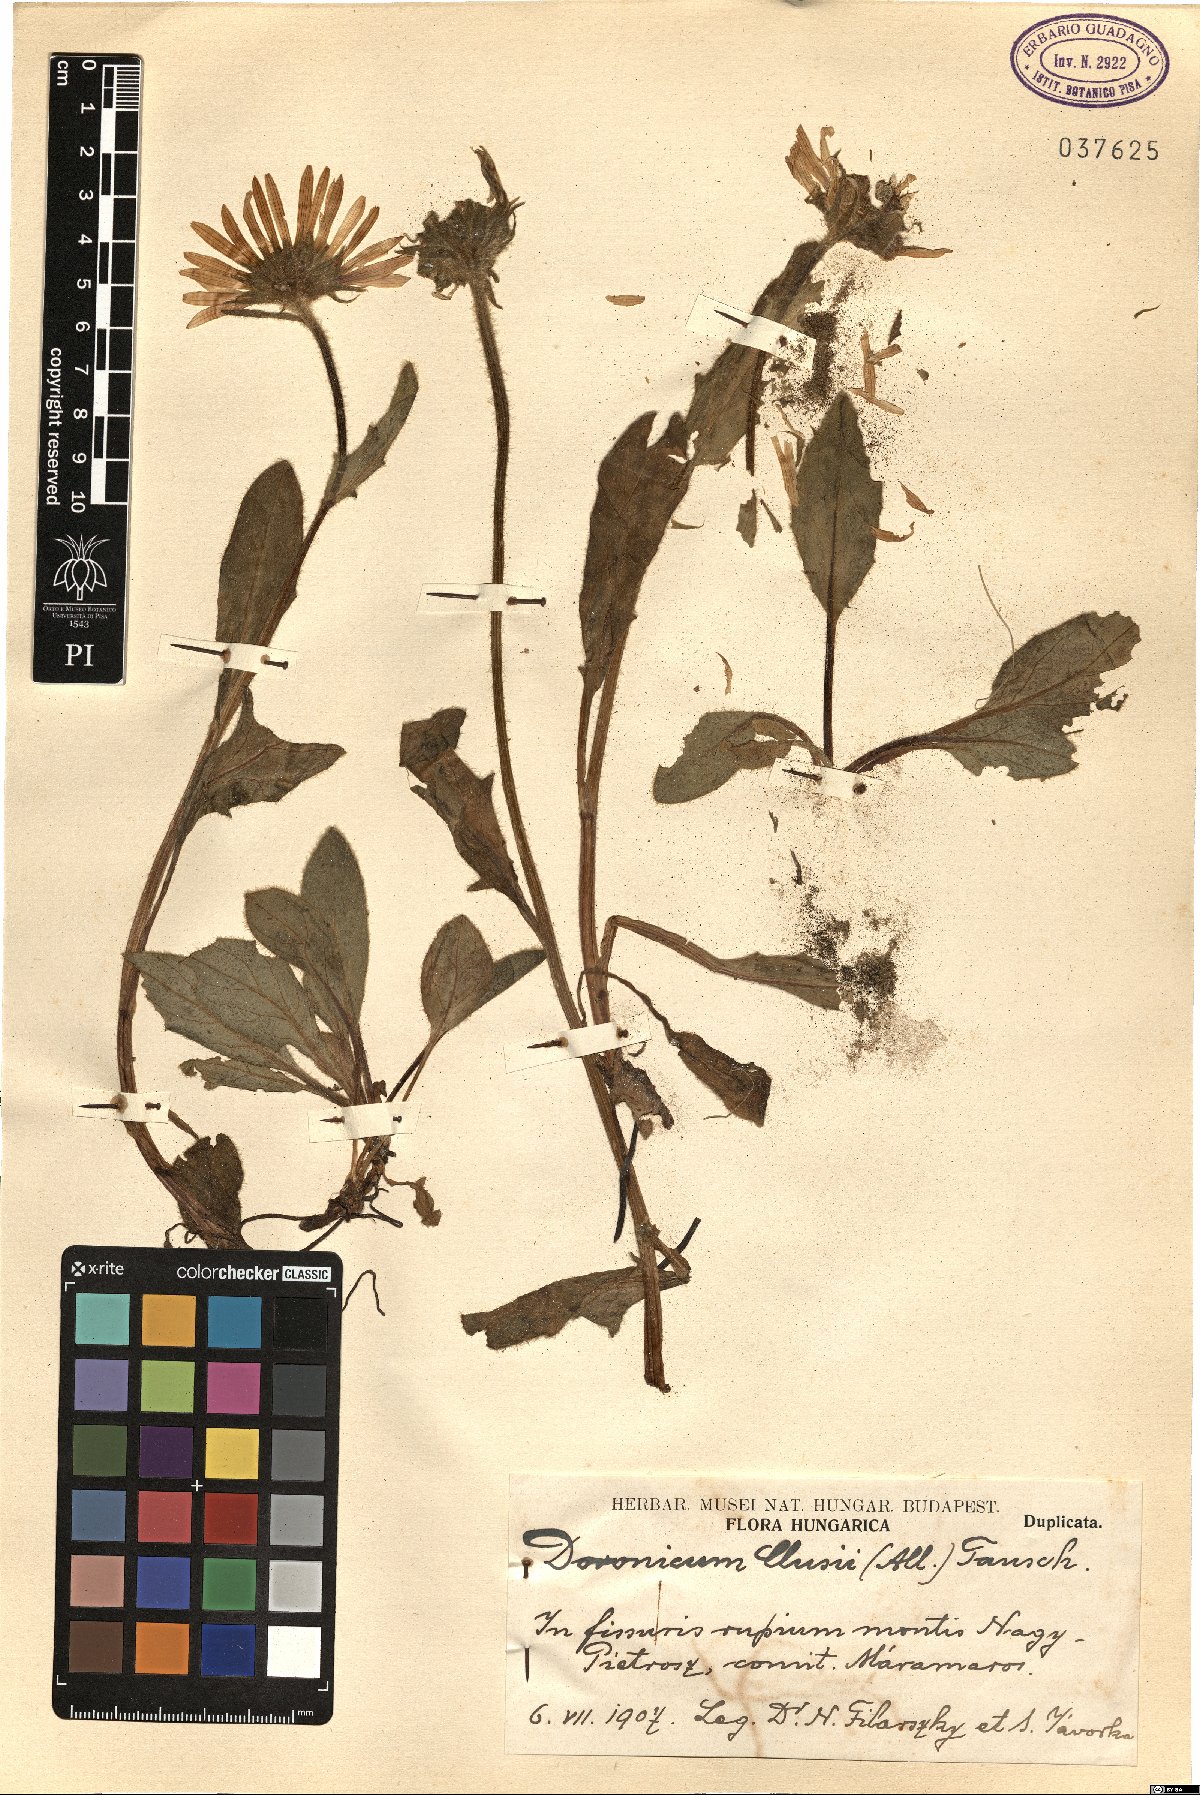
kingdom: Plantae
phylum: Tracheophyta
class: Magnoliopsida
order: Asterales
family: Asteraceae
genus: Doronicum
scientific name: Doronicum clusii
